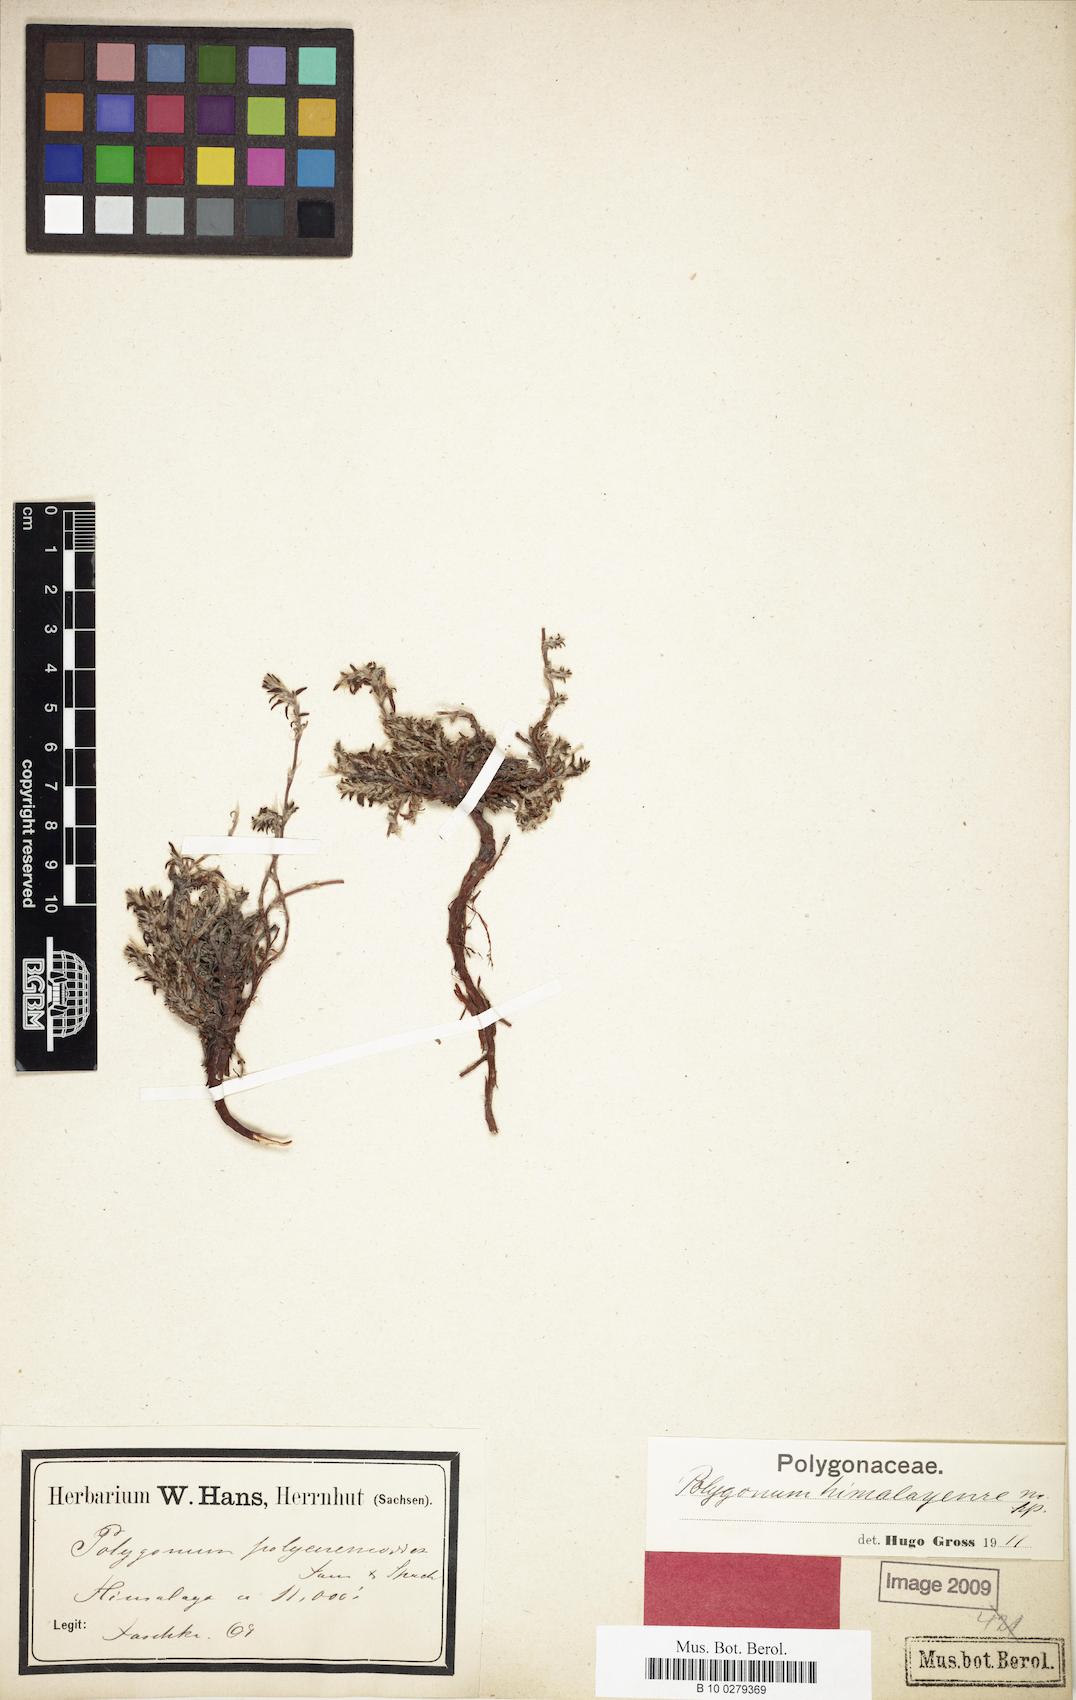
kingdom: Plantae
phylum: Tracheophyta
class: Magnoliopsida
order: Caryophyllales
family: Polygonaceae
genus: Polygonum
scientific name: Polygonum paronychioides
